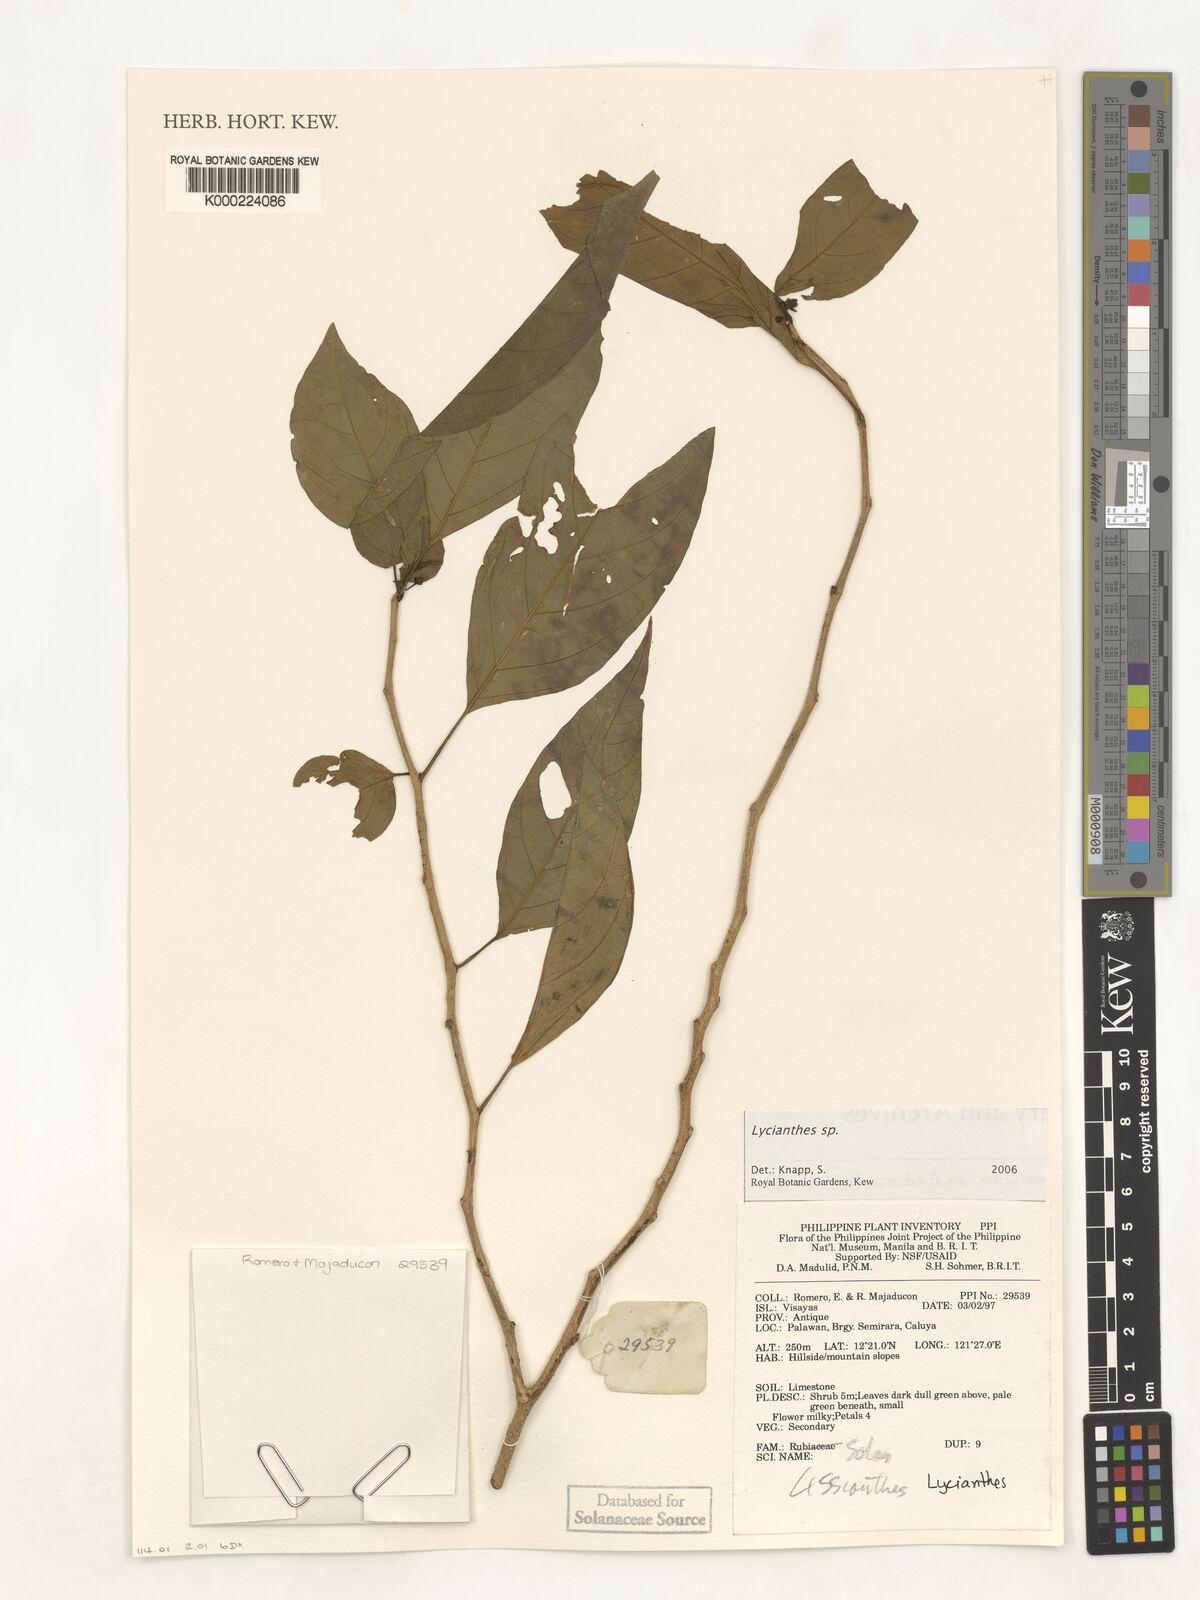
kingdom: Plantae
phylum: Tracheophyta
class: Magnoliopsida
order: Solanales
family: Solanaceae
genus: Lycianthes
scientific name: Lycianthes
